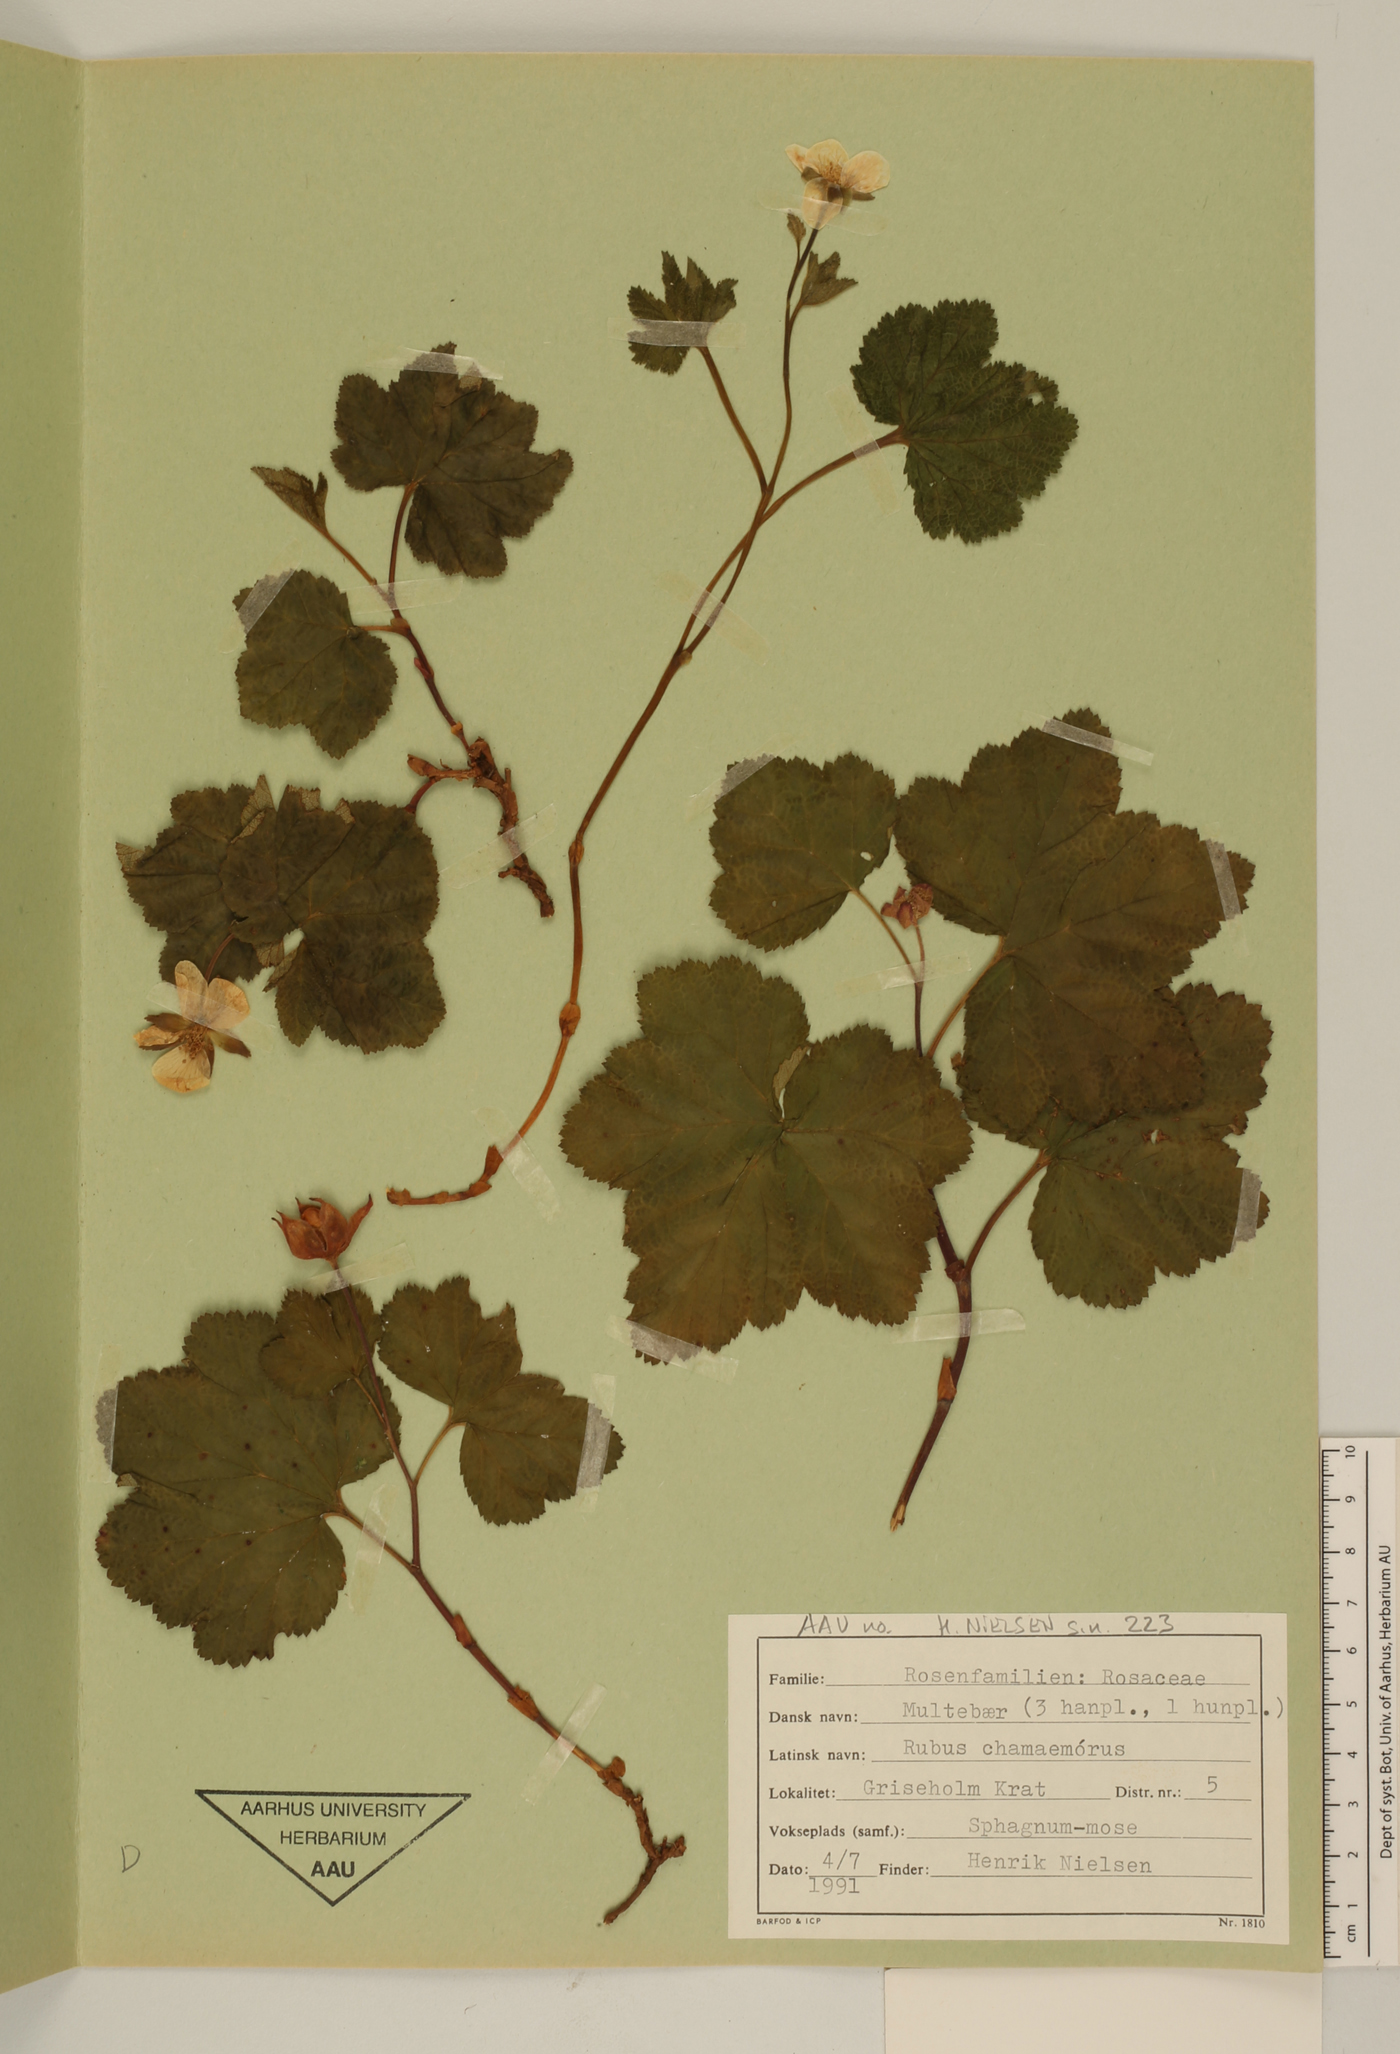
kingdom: Plantae
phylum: Tracheophyta
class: Magnoliopsida
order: Rosales
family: Rosaceae
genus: Rubus
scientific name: Rubus chamaemorus
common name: Cloudberry
